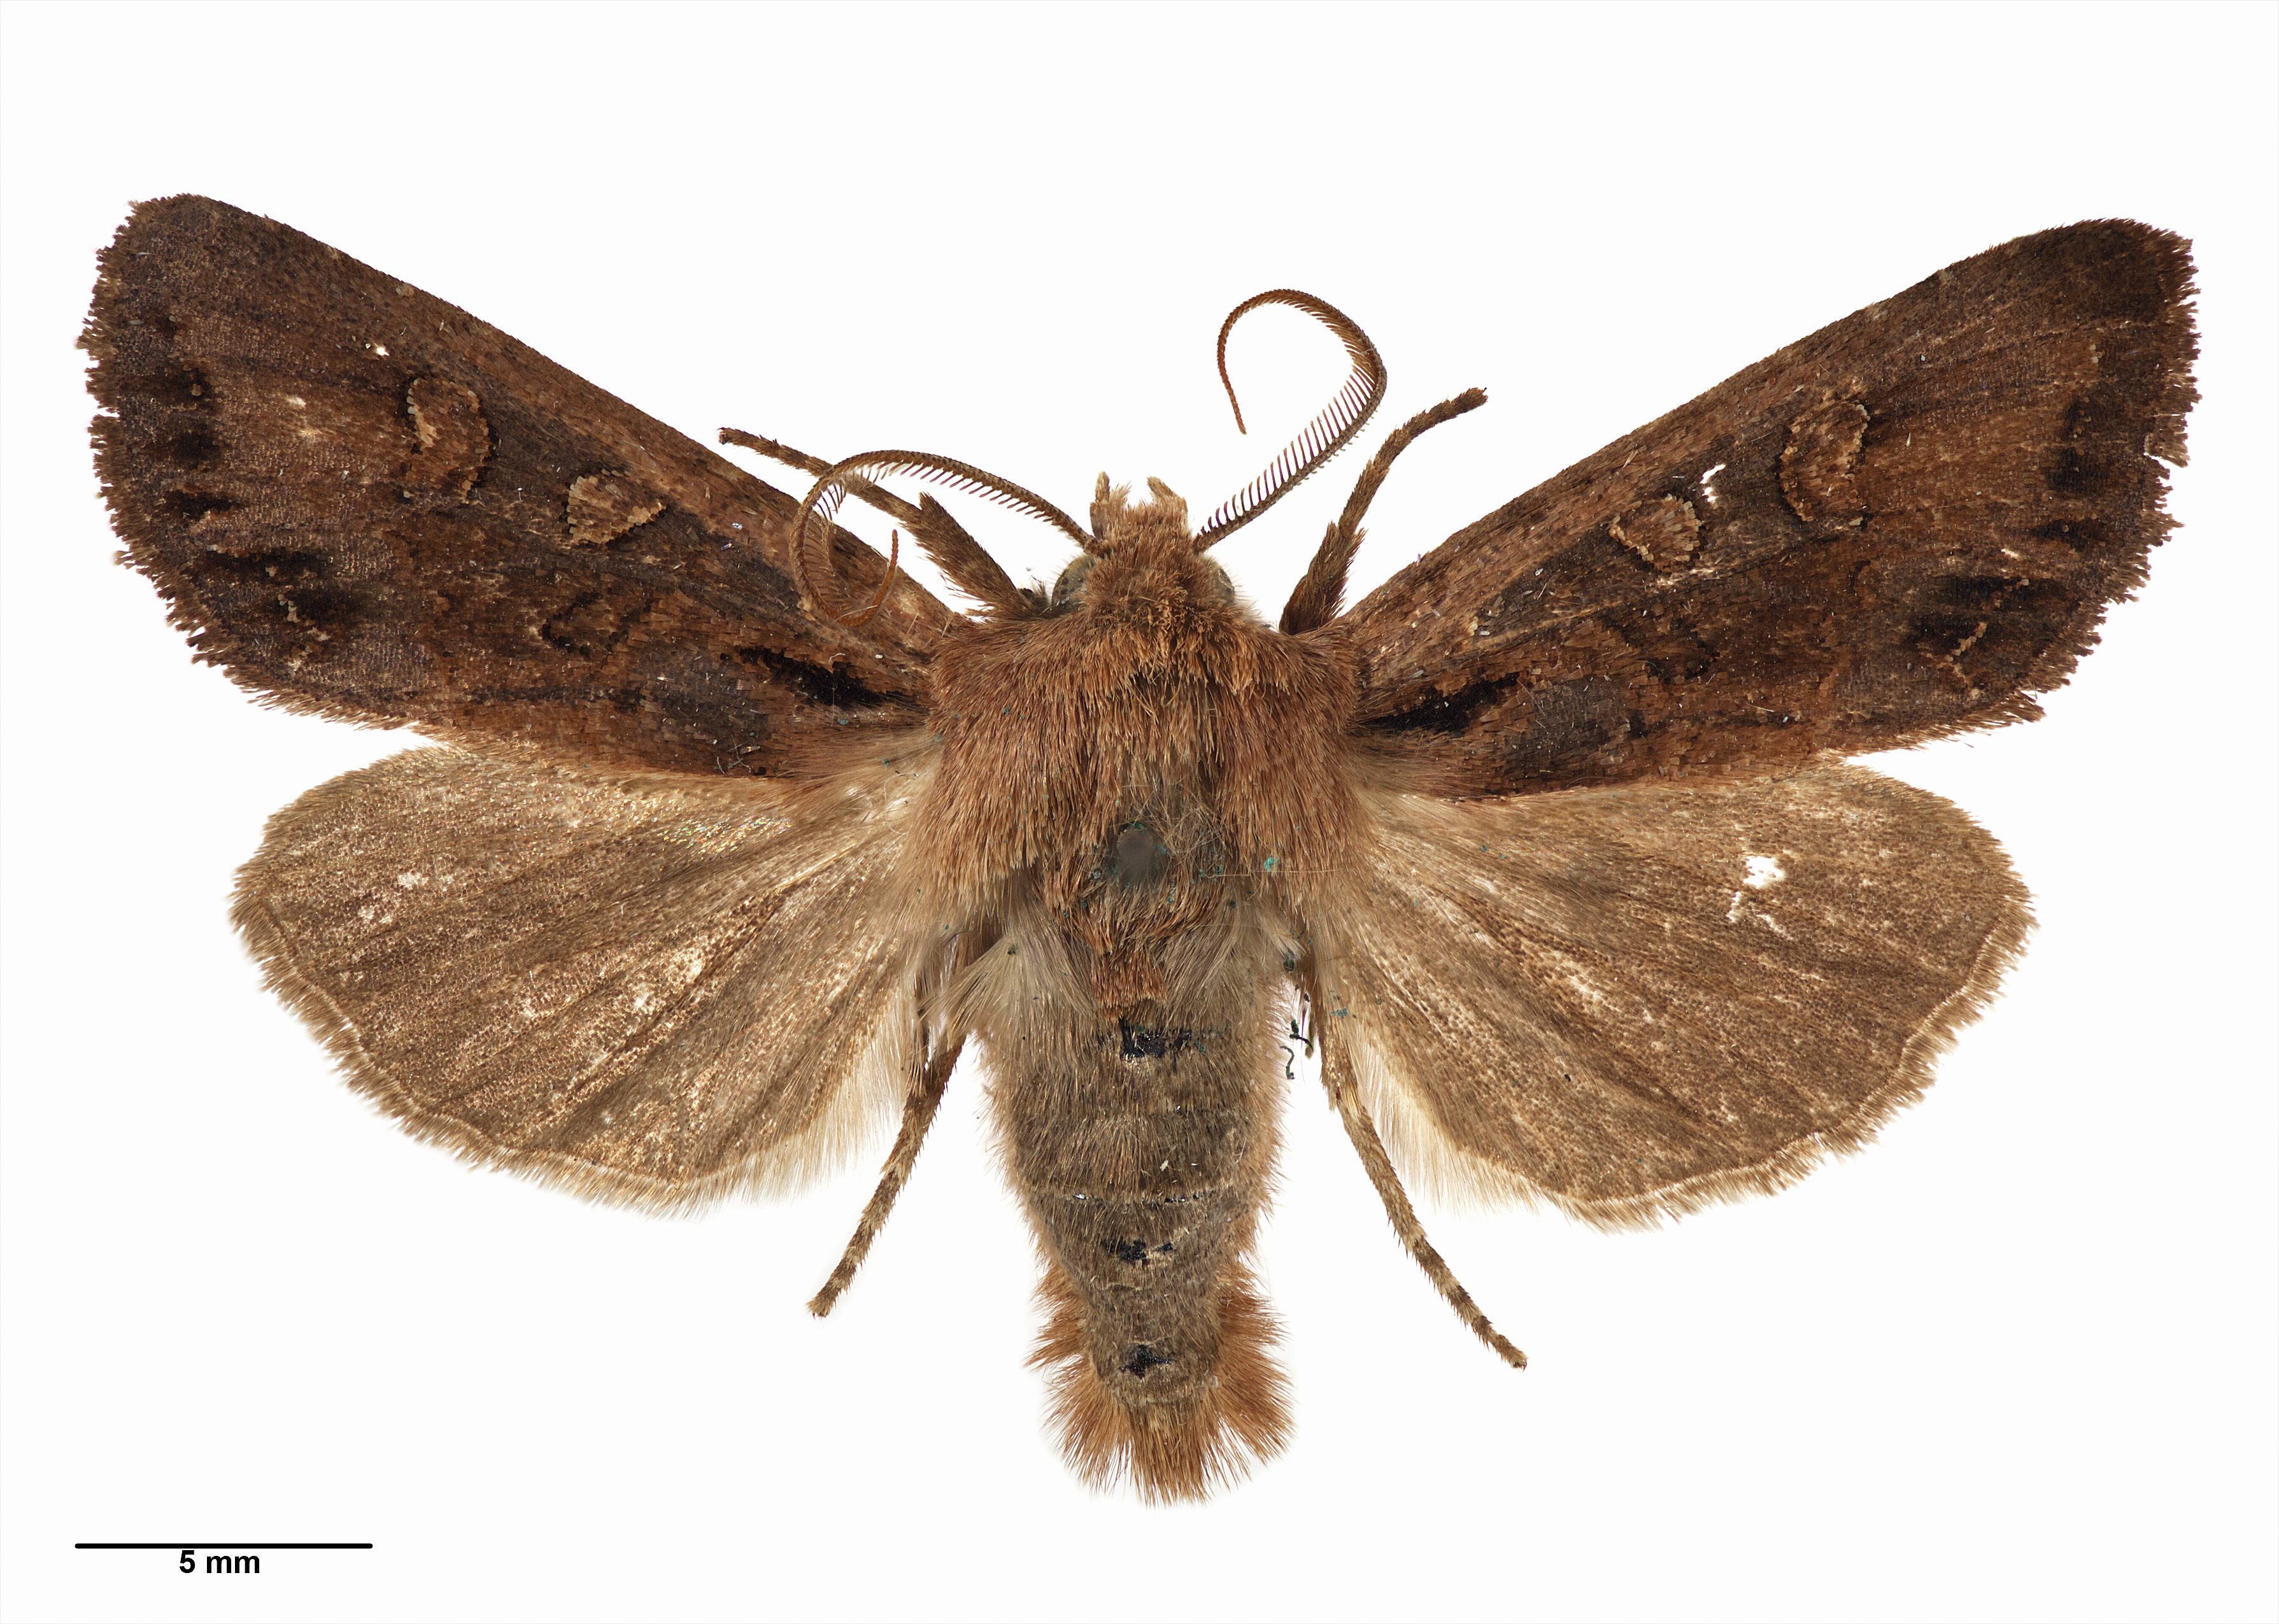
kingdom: Animalia
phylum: Arthropoda
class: Insecta
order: Lepidoptera
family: Noctuidae
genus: Ichneutica
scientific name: Ichneutica
